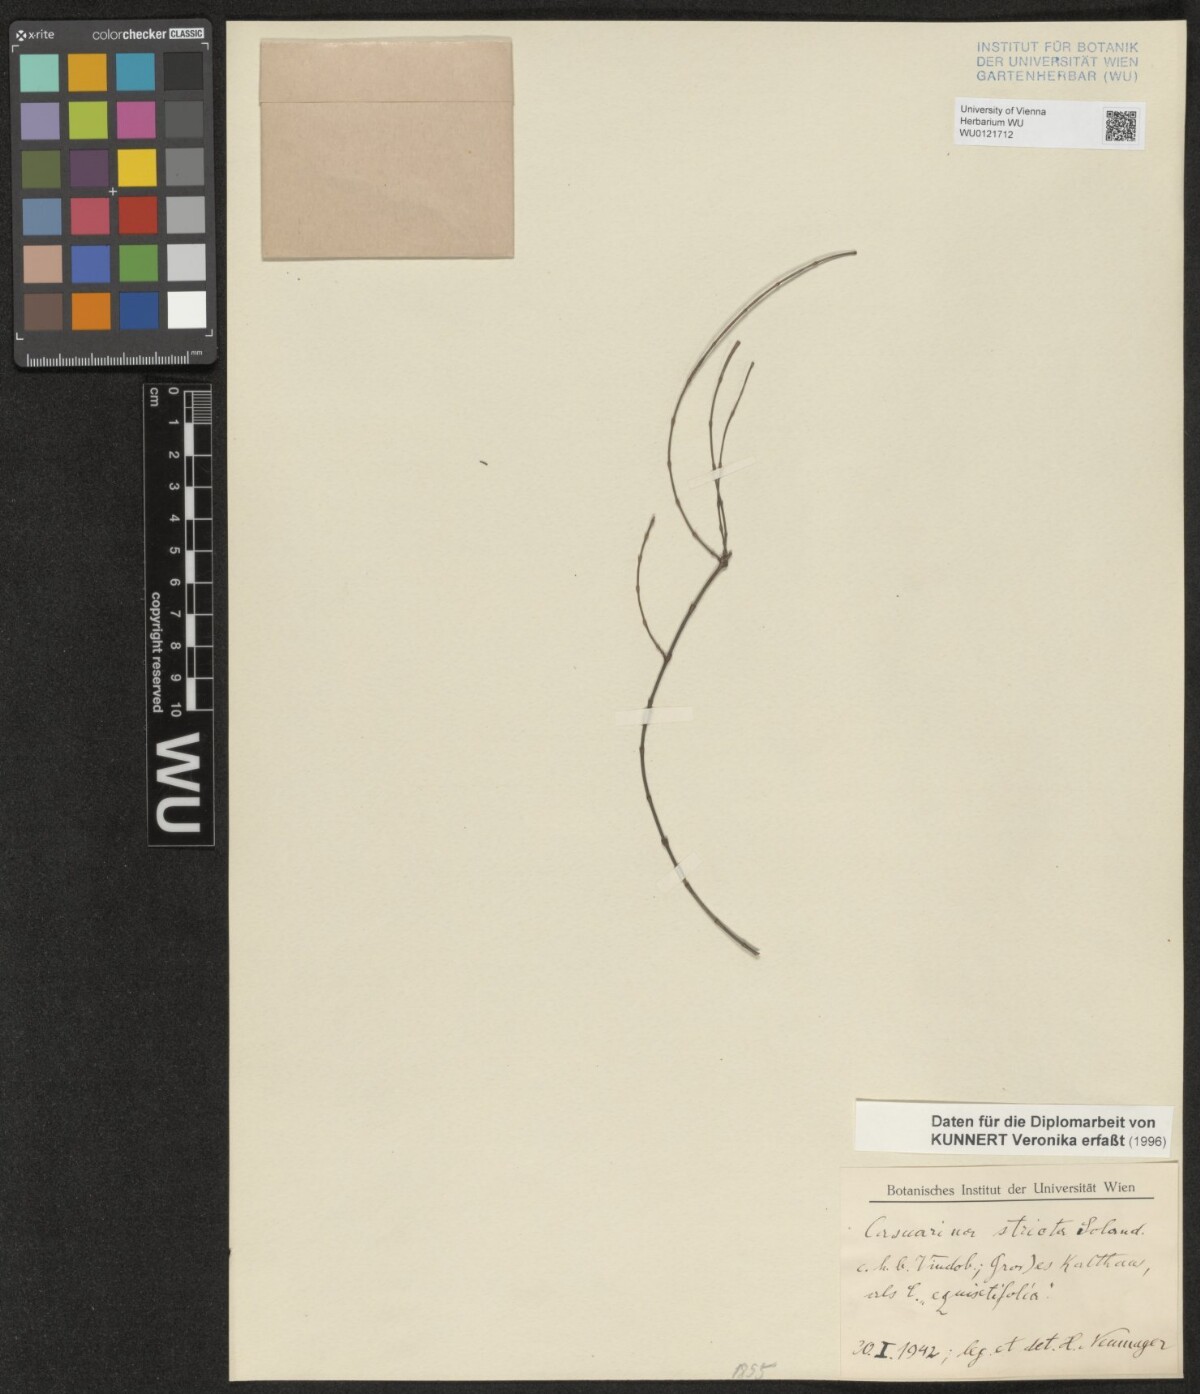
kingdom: Plantae
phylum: Tracheophyta
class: Magnoliopsida
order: Fagales
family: Casuarinaceae
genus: Casuarina
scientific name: Casuarina stricta
